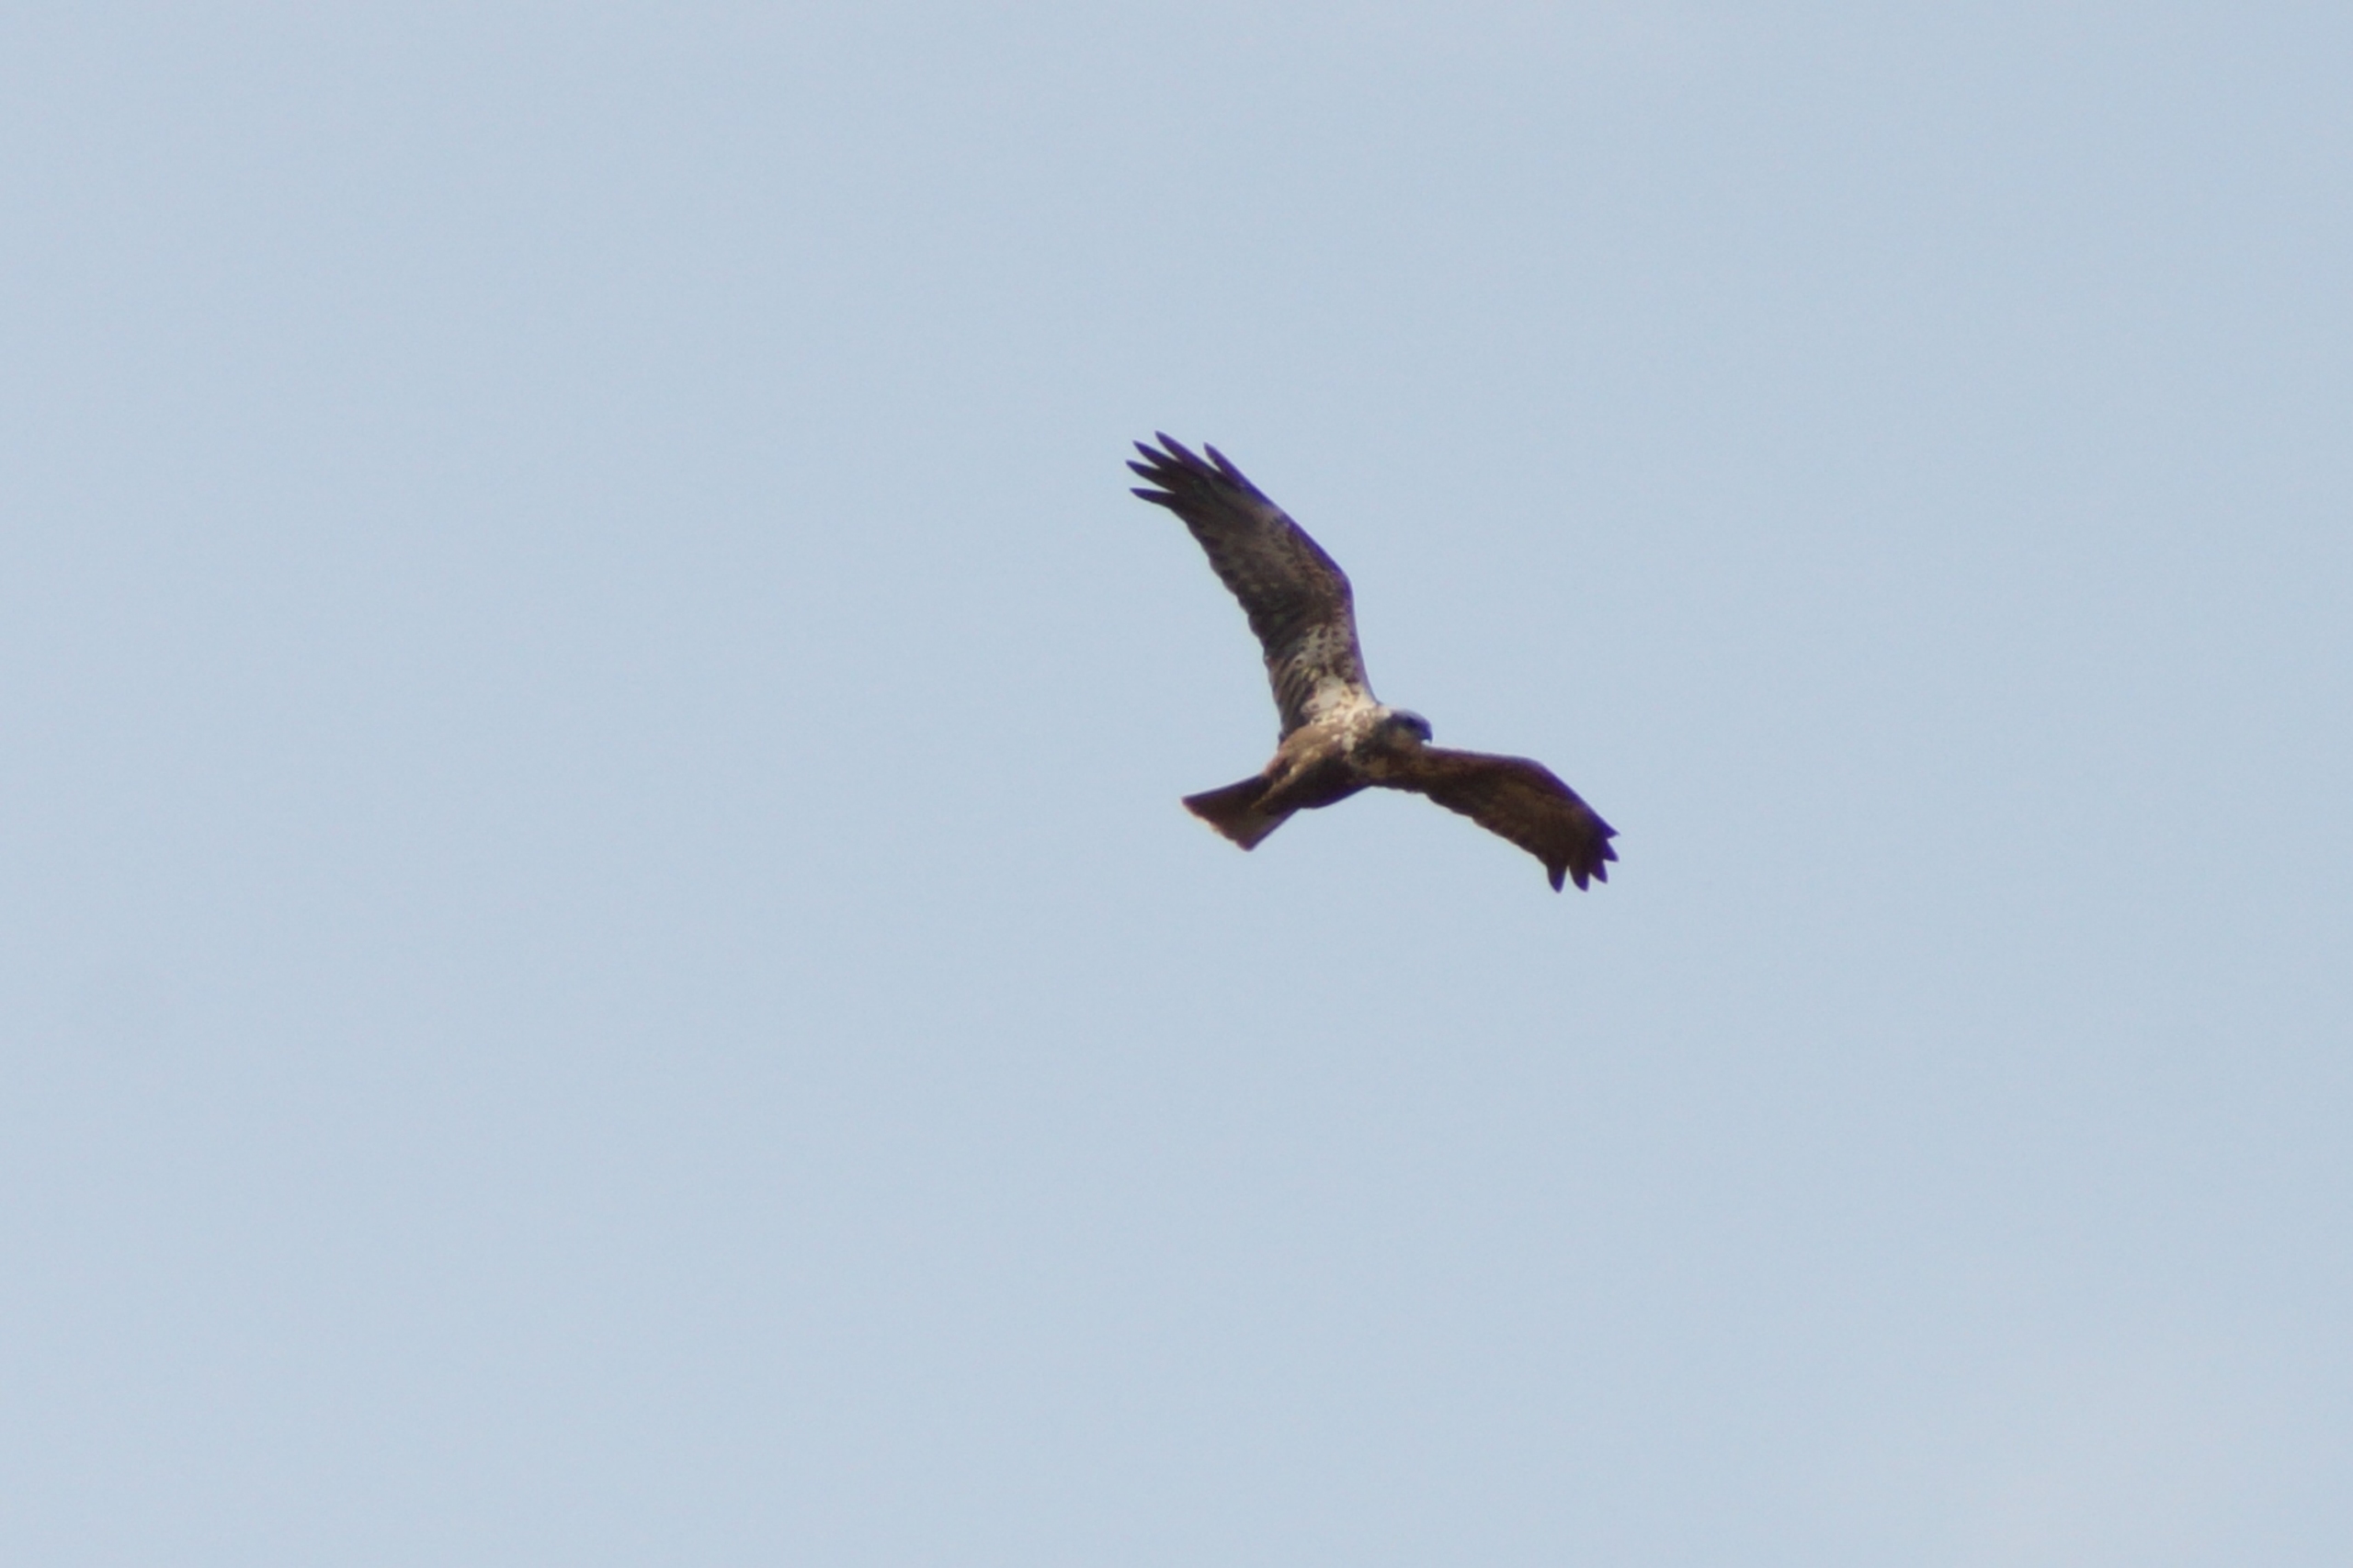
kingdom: Animalia
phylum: Chordata
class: Aves
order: Accipitriformes
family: Accipitridae
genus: Circus
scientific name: Circus aeruginosus
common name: Rørhøg
